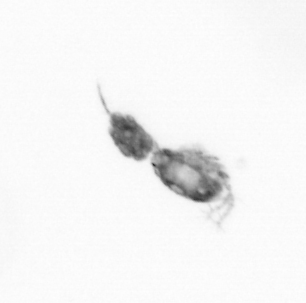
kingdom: Animalia
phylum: Arthropoda
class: Copepoda
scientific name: Copepoda
